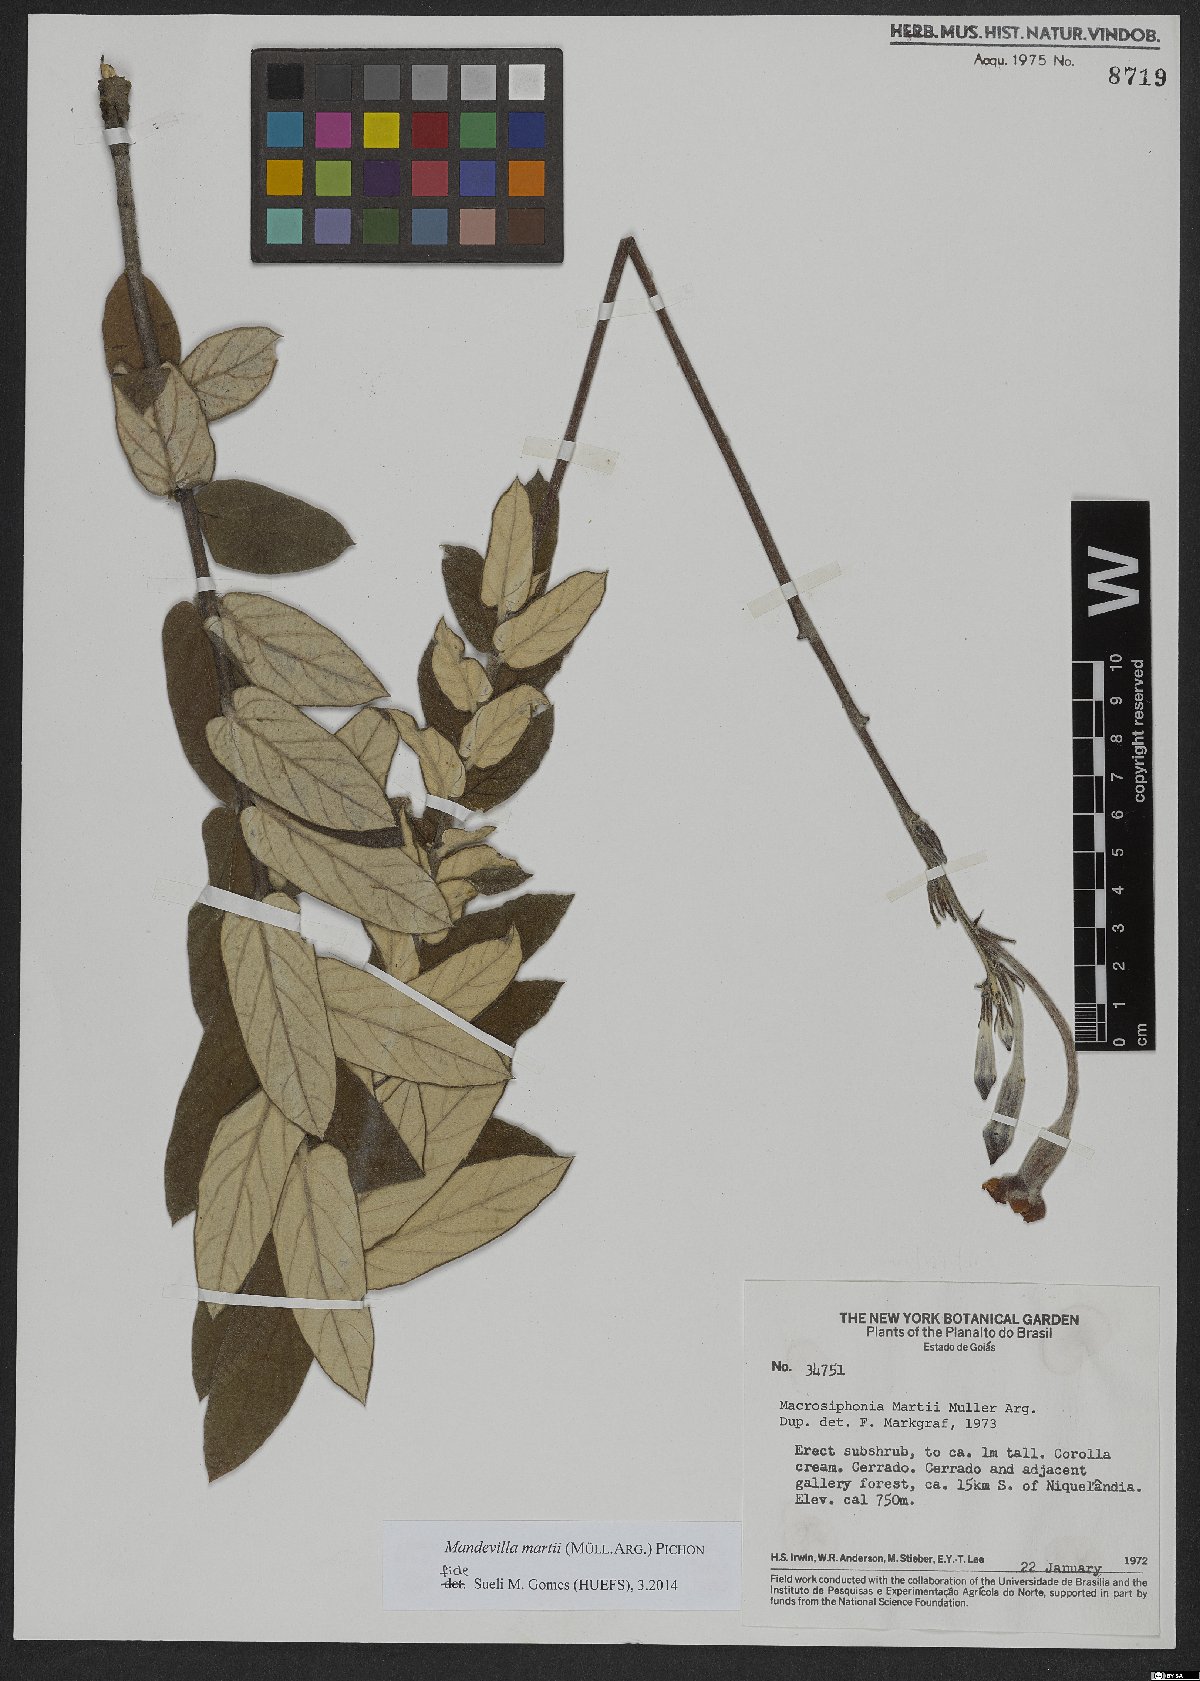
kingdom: Plantae
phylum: Tracheophyta
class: Magnoliopsida
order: Gentianales
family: Apocynaceae
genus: Mandevilla
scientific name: Mandevilla martii
